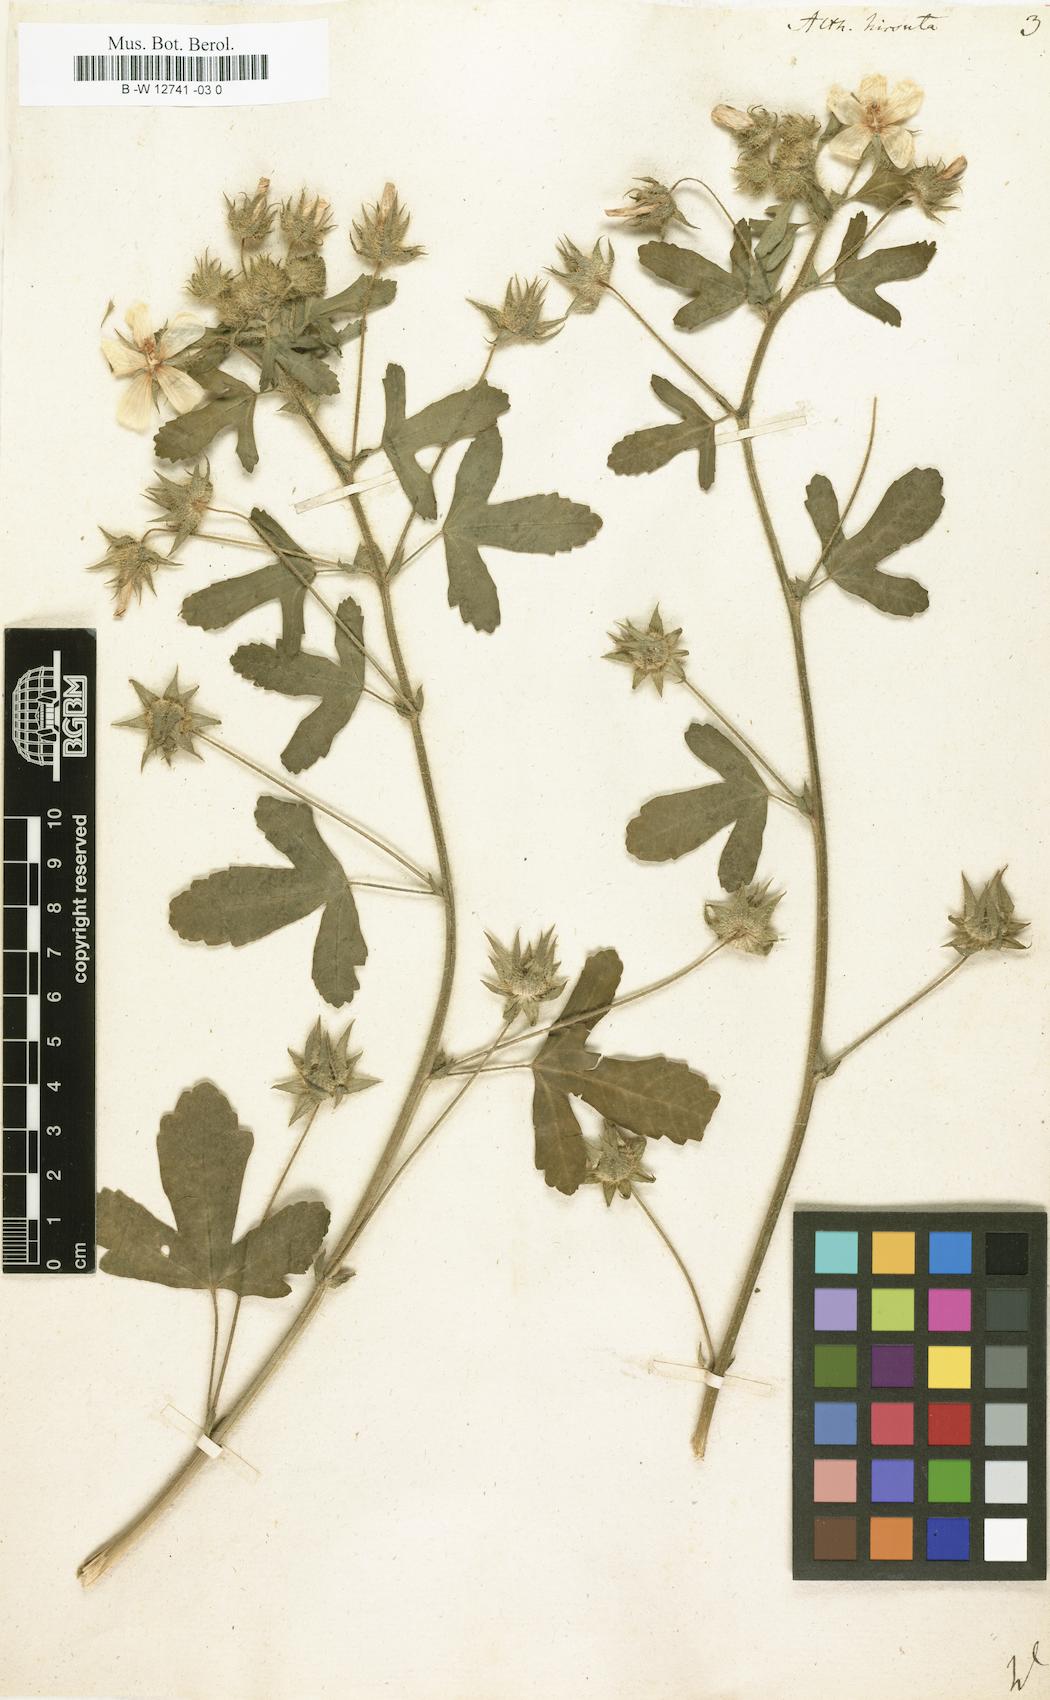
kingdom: Plantae
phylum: Tracheophyta
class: Magnoliopsida
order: Malvales
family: Malvaceae
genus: Althaea
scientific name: Althaea hirsuta
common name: Rough marsh-mallow
